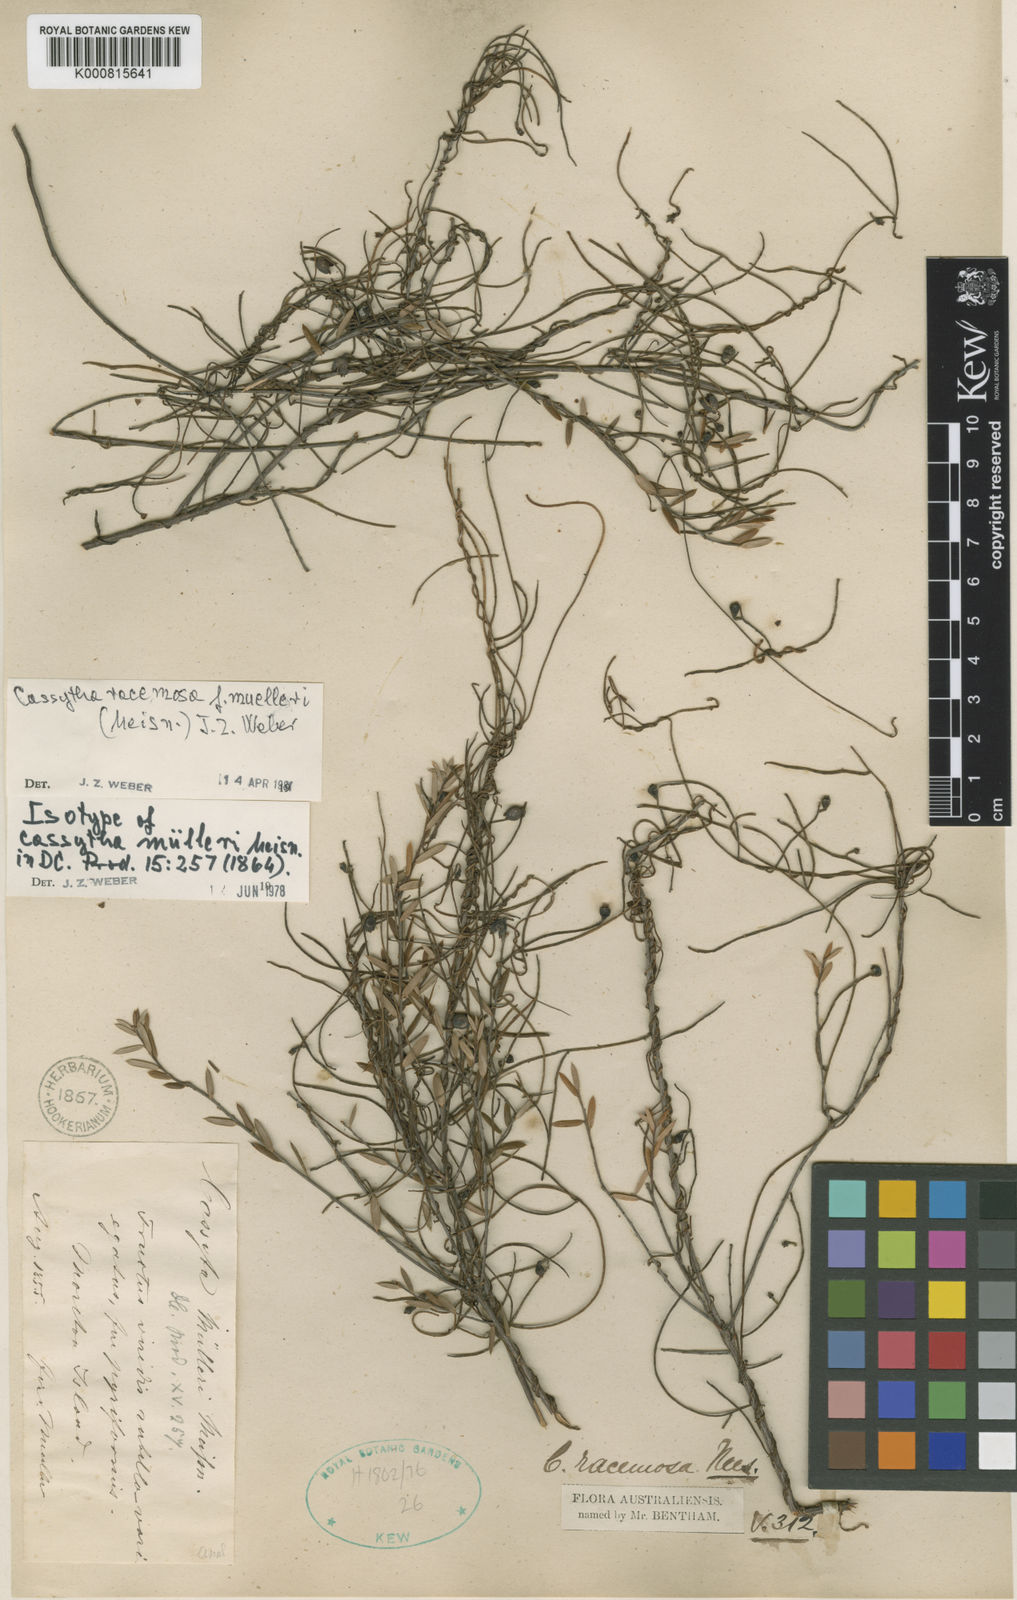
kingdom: Plantae
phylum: Tracheophyta
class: Magnoliopsida
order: Laurales
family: Lauraceae
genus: Cassytha
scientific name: Cassytha muelleri
